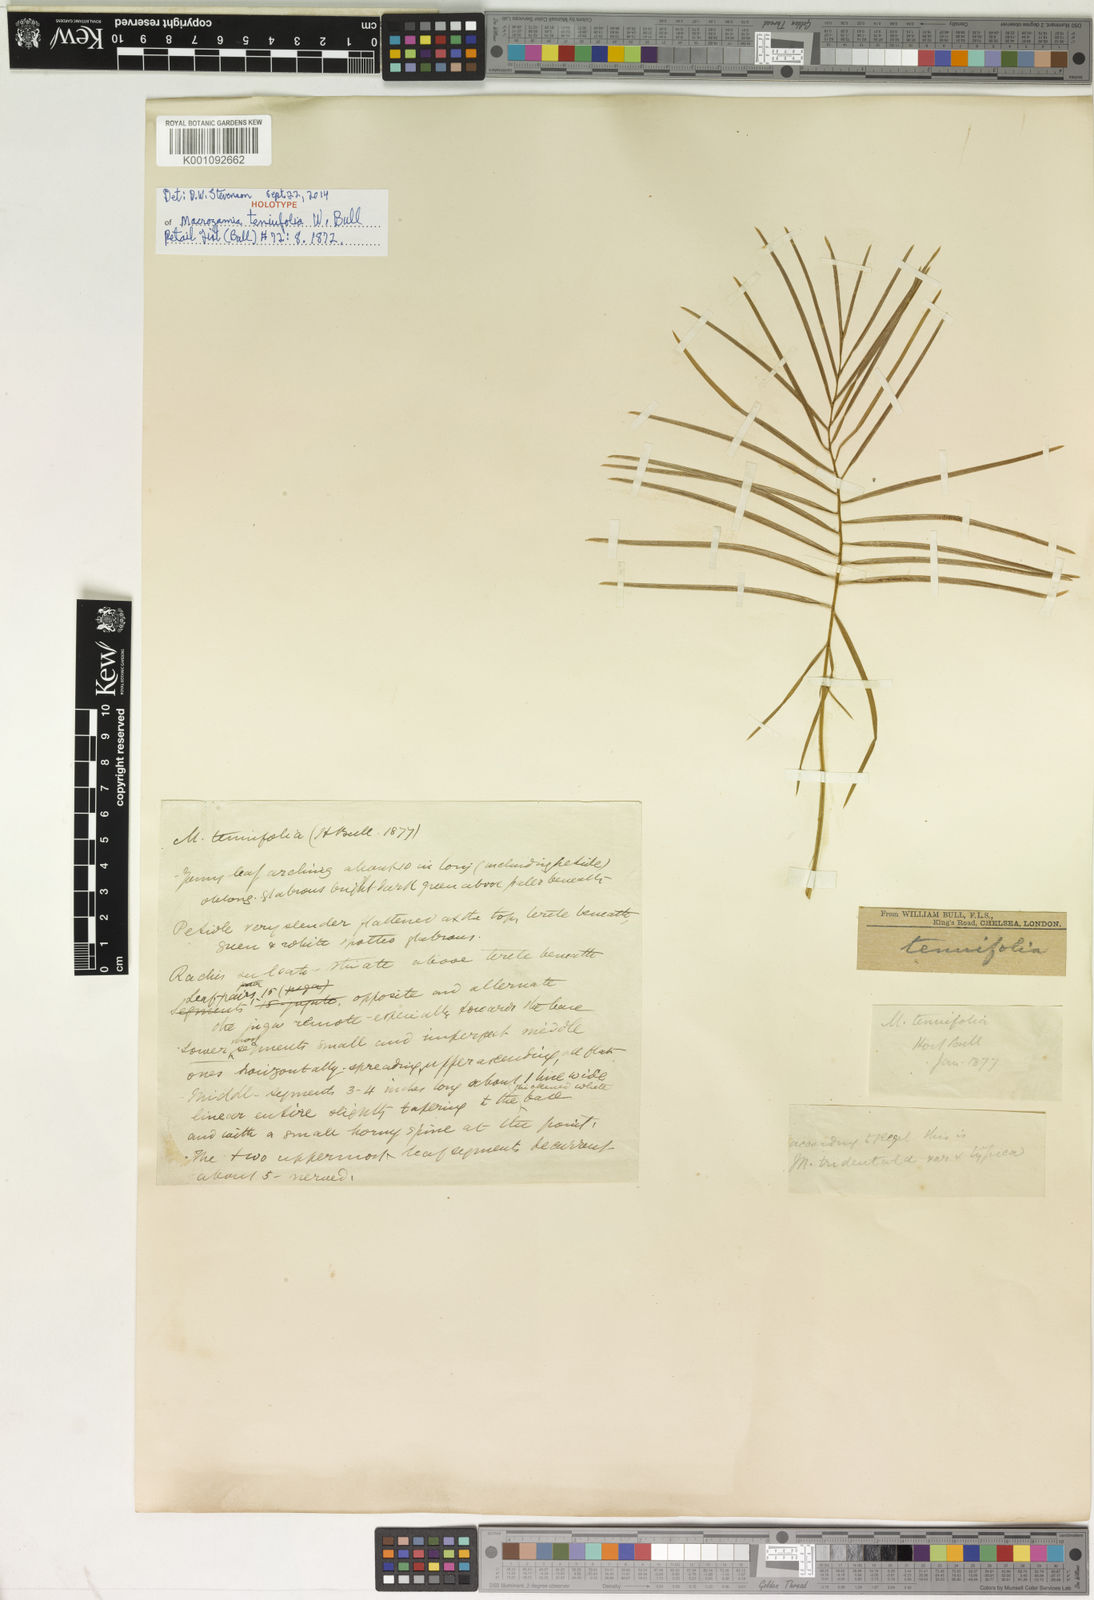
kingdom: Plantae
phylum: Tracheophyta
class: Cycadopsida
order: Cycadales
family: Zamiaceae
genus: Macrozamia
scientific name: Macrozamia miquelii
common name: Wild pineapple
